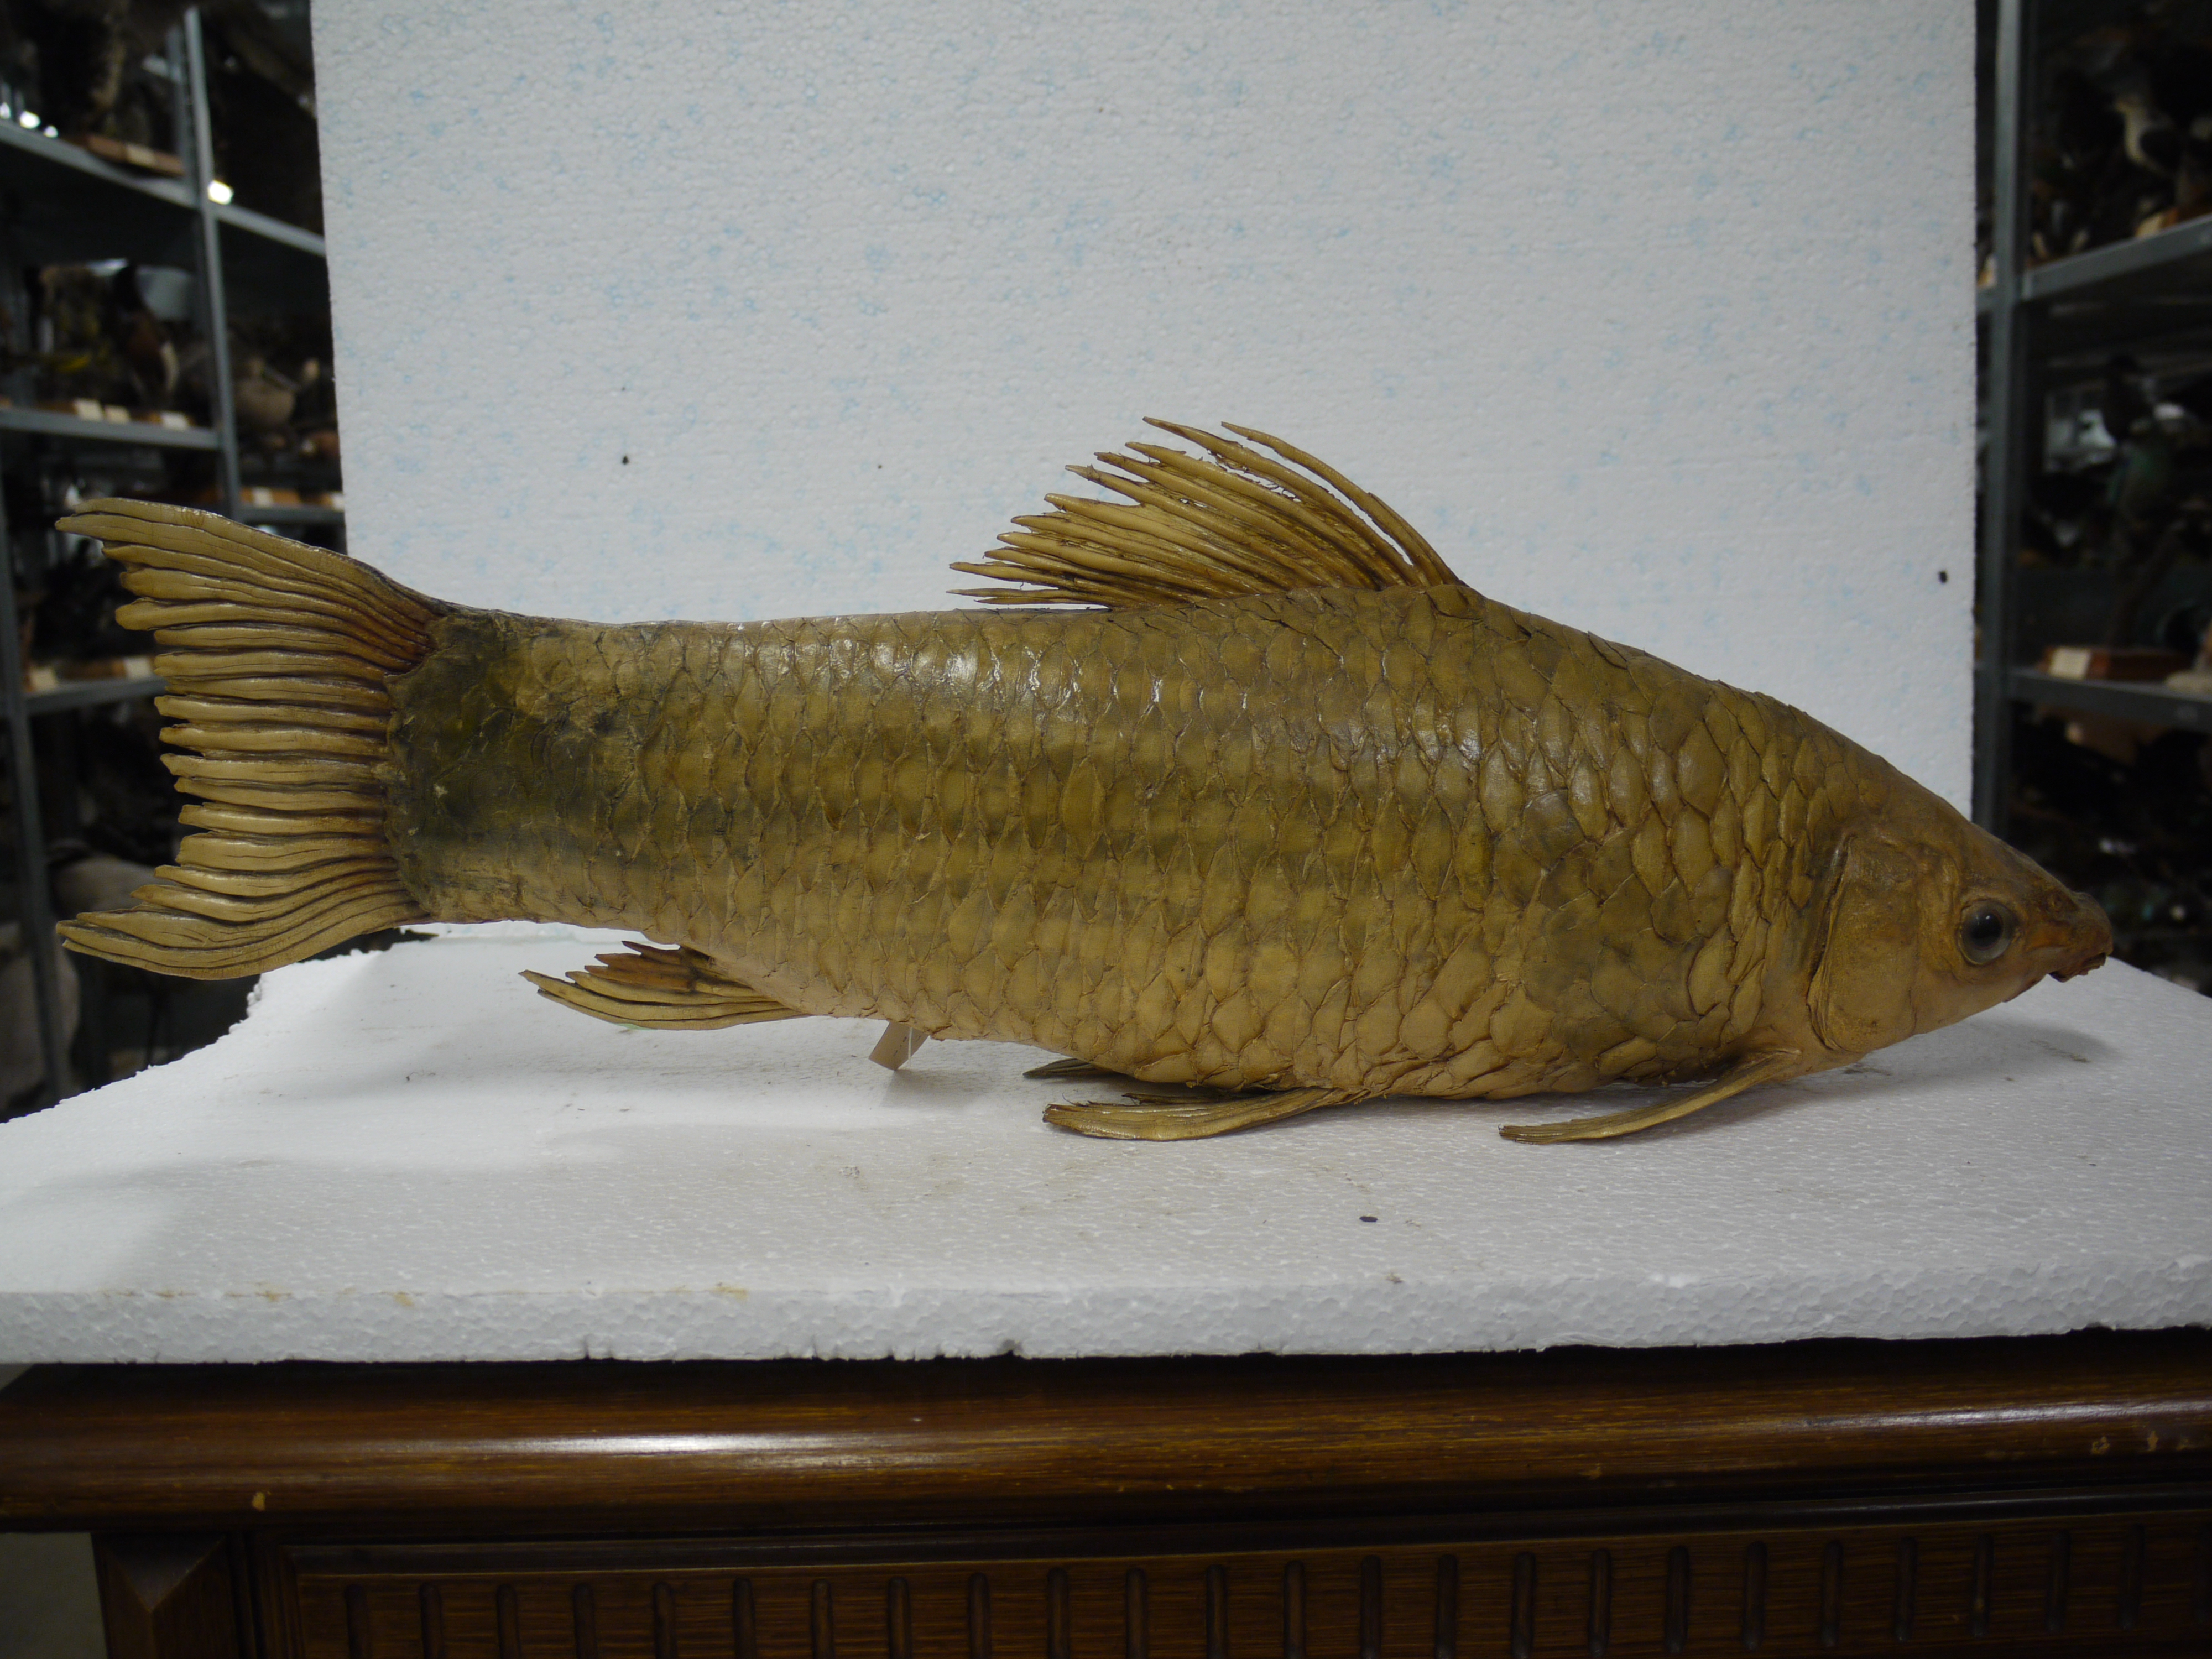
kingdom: Animalia
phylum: Chordata
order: Cypriniformes
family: Cyprinidae
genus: Cyprinus
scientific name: Cyprinus carpio
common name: Common carp
